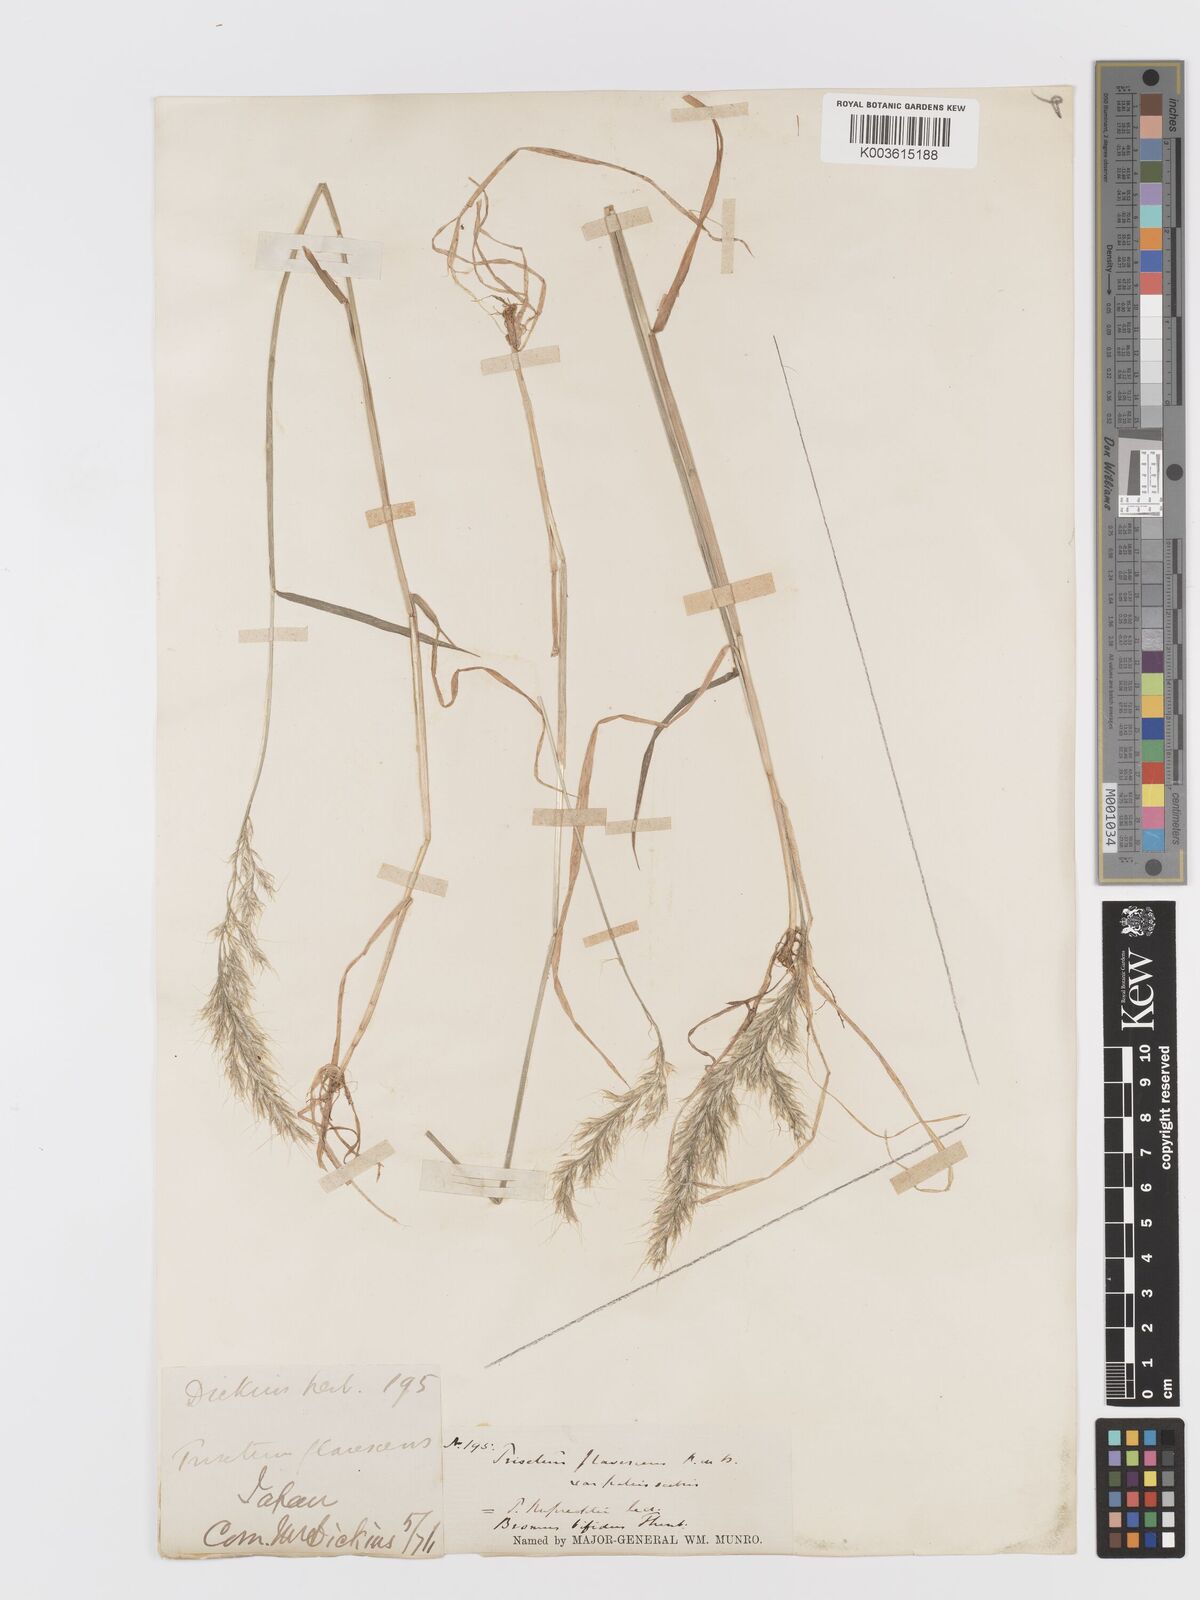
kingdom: Plantae
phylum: Tracheophyta
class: Liliopsida
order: Poales
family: Poaceae
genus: Sibirotrisetum
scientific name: Sibirotrisetum bifidum
